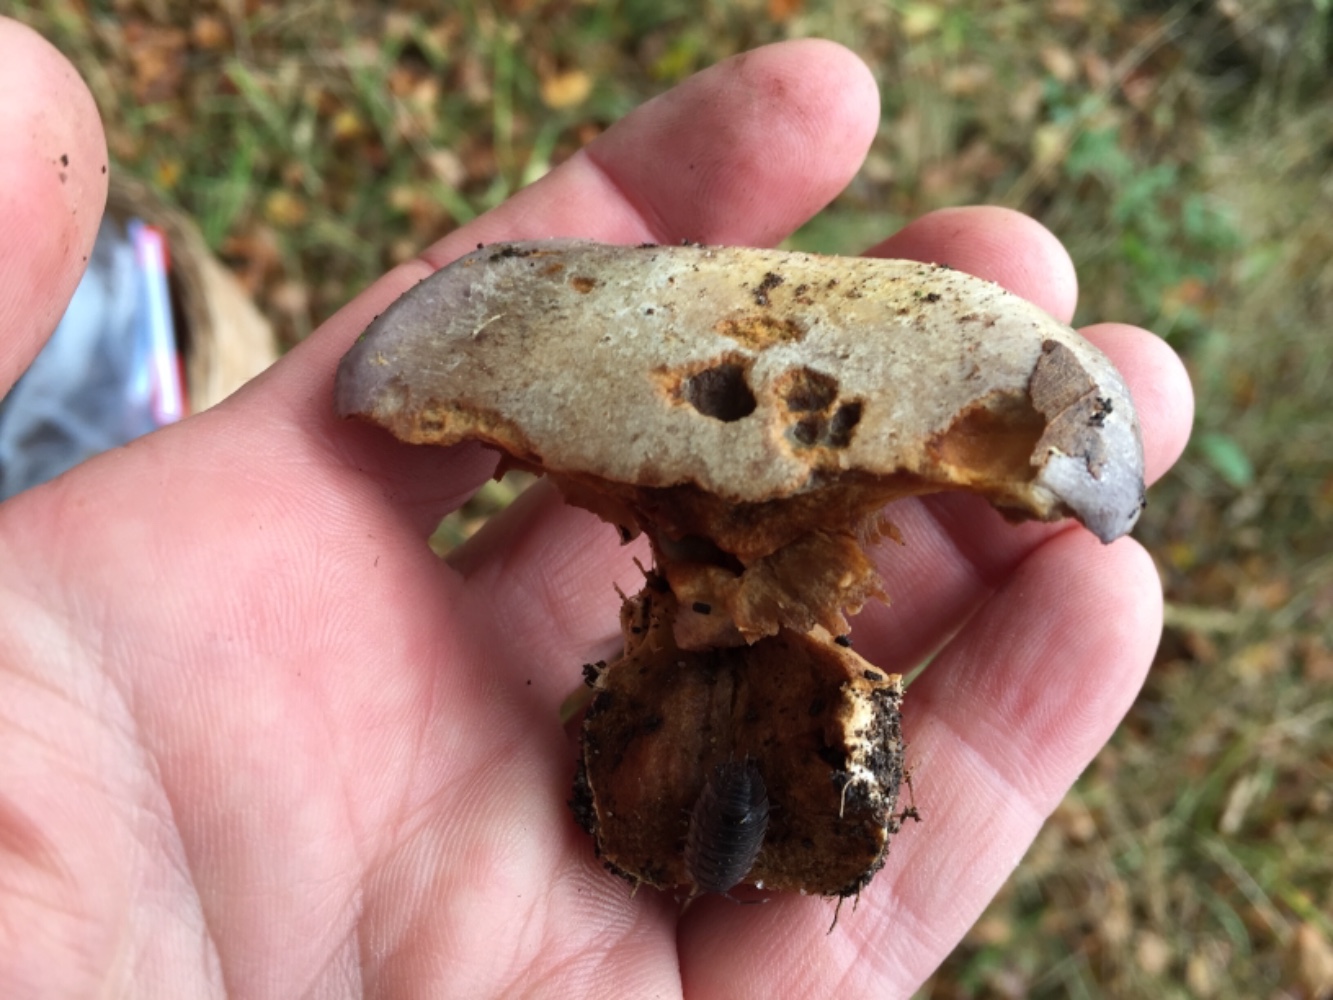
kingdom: Fungi
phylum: Basidiomycota
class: Agaricomycetes
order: Agaricales
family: Cortinariaceae
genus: Cortinarius
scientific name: Cortinarius caerulescens
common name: blåkødet slørhat
